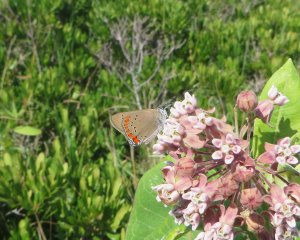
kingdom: Animalia
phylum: Arthropoda
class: Insecta
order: Lepidoptera
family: Lycaenidae
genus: Harkenclenus
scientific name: Harkenclenus titus
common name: Coral Hairstreak
